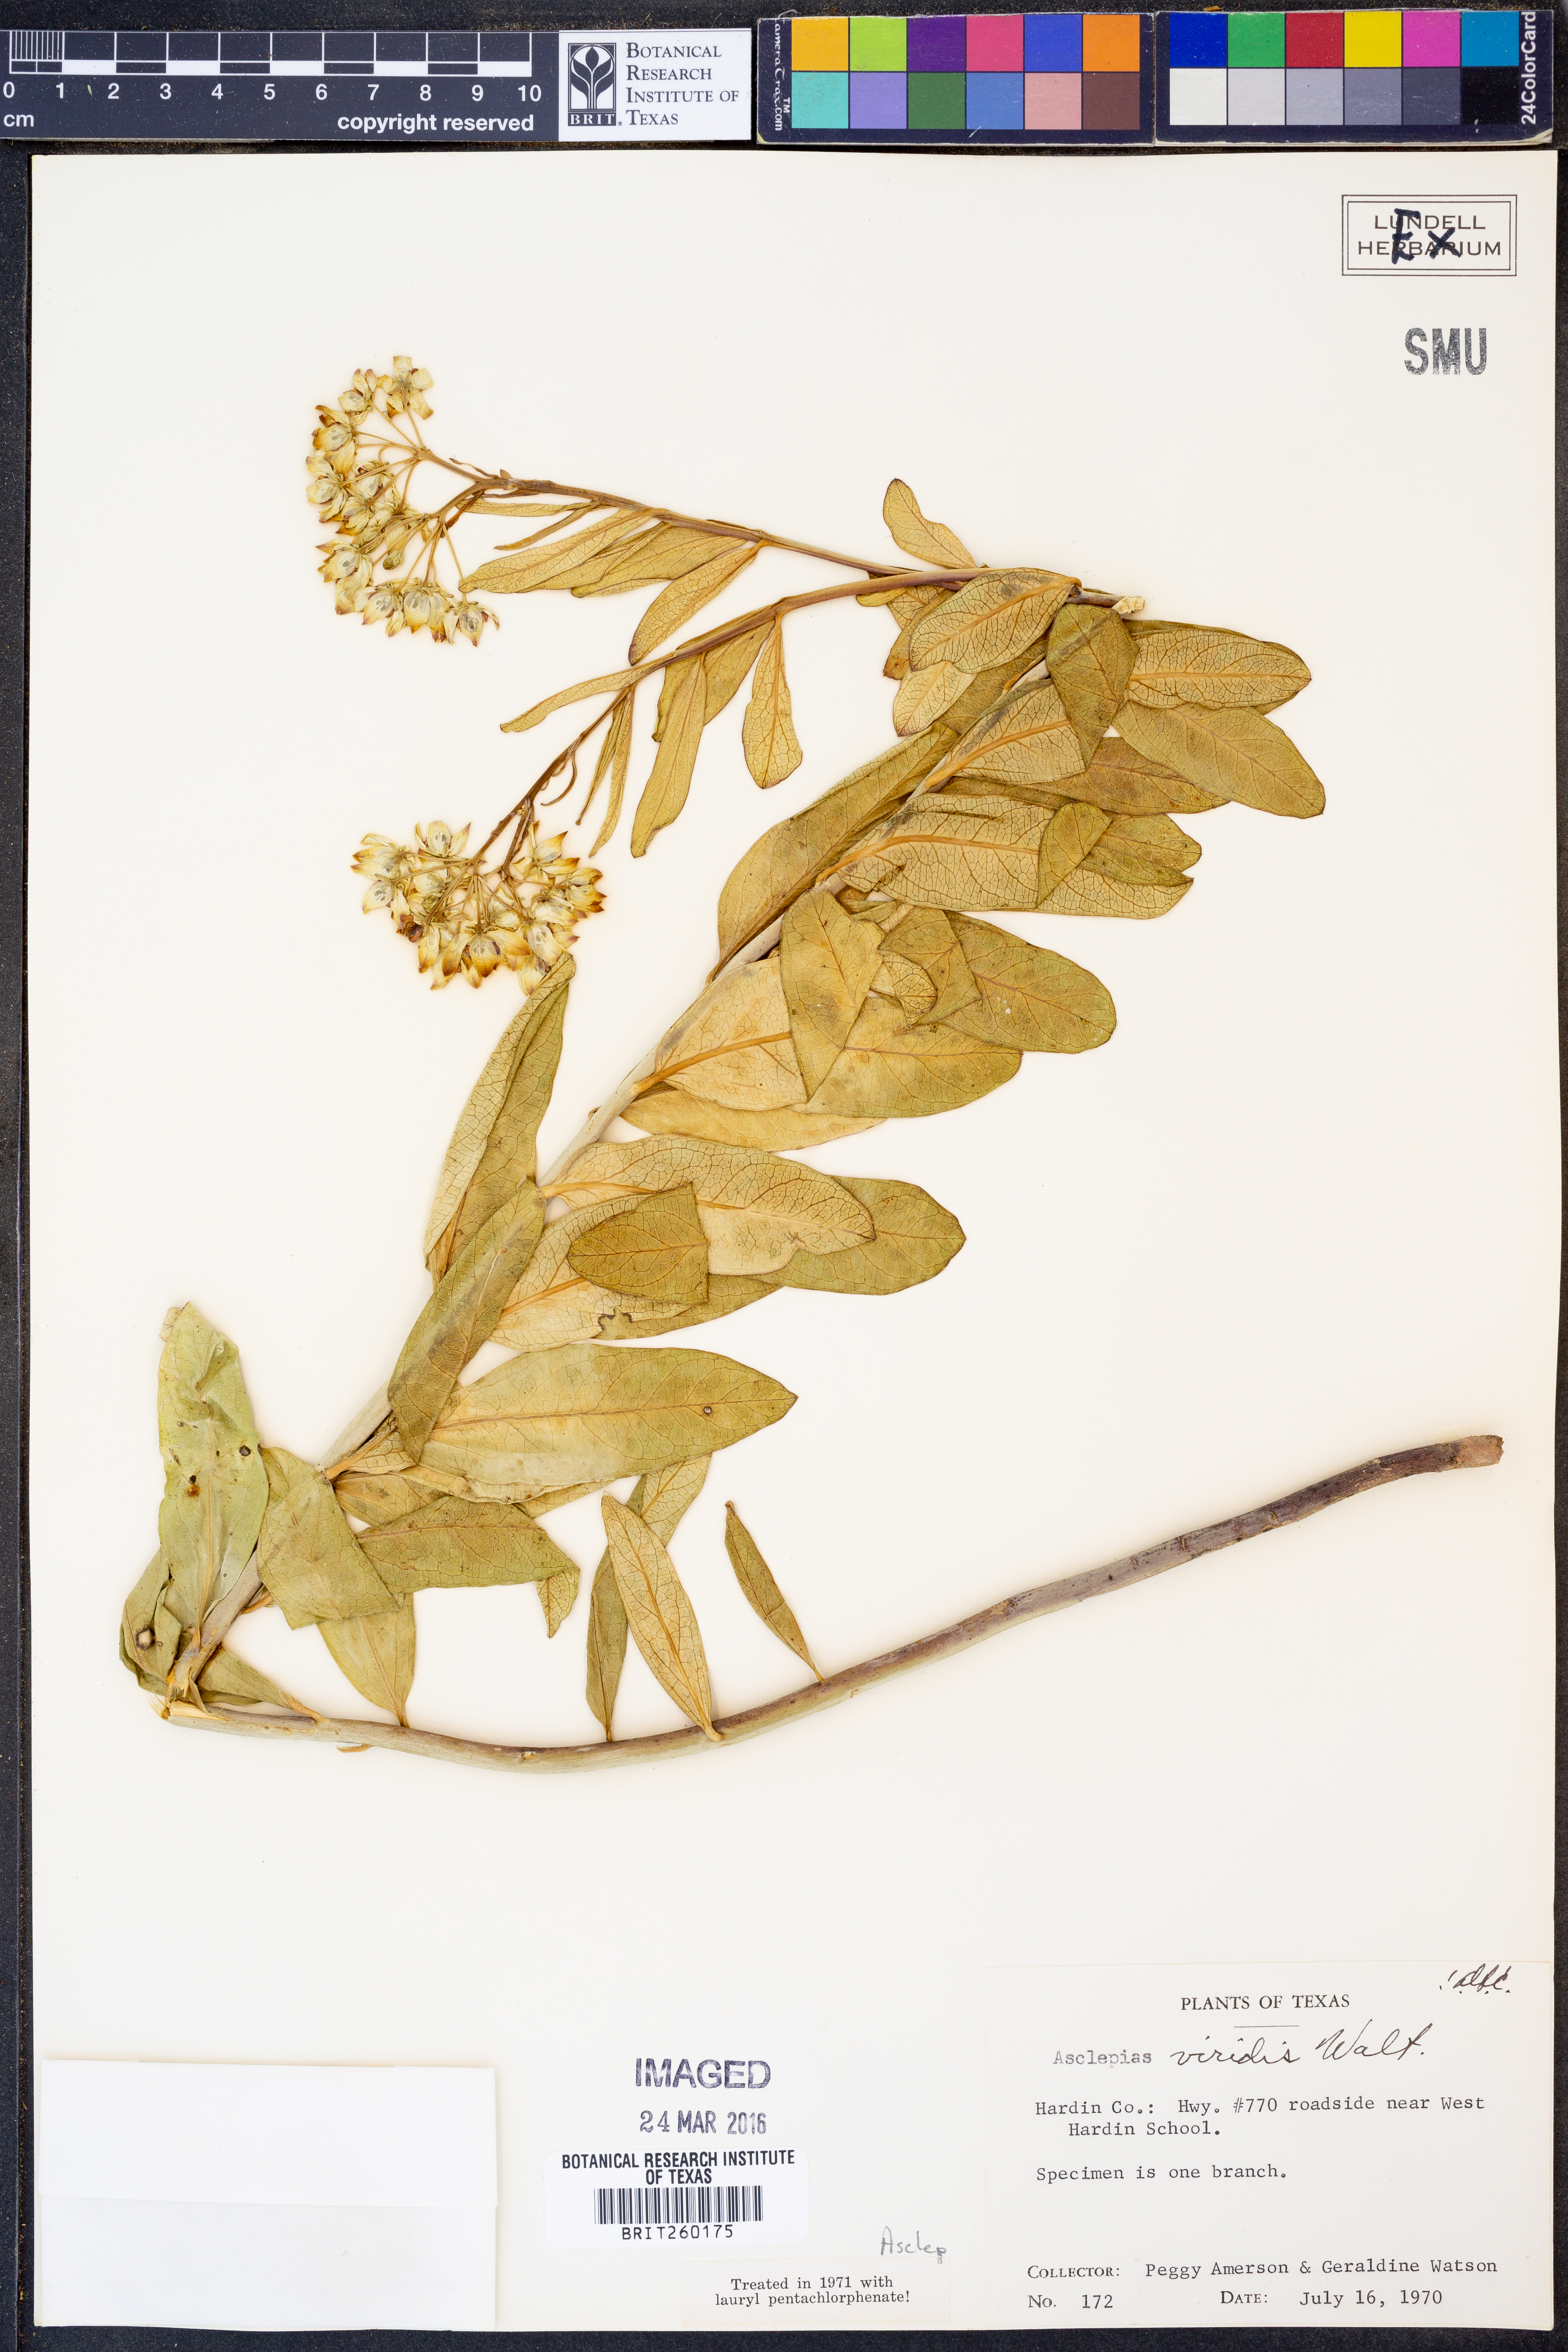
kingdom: Plantae
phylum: Tracheophyta
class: Magnoliopsida
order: Gentianales
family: Apocynaceae
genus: Asclepias
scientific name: Asclepias viridis
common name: Antelope-horns
